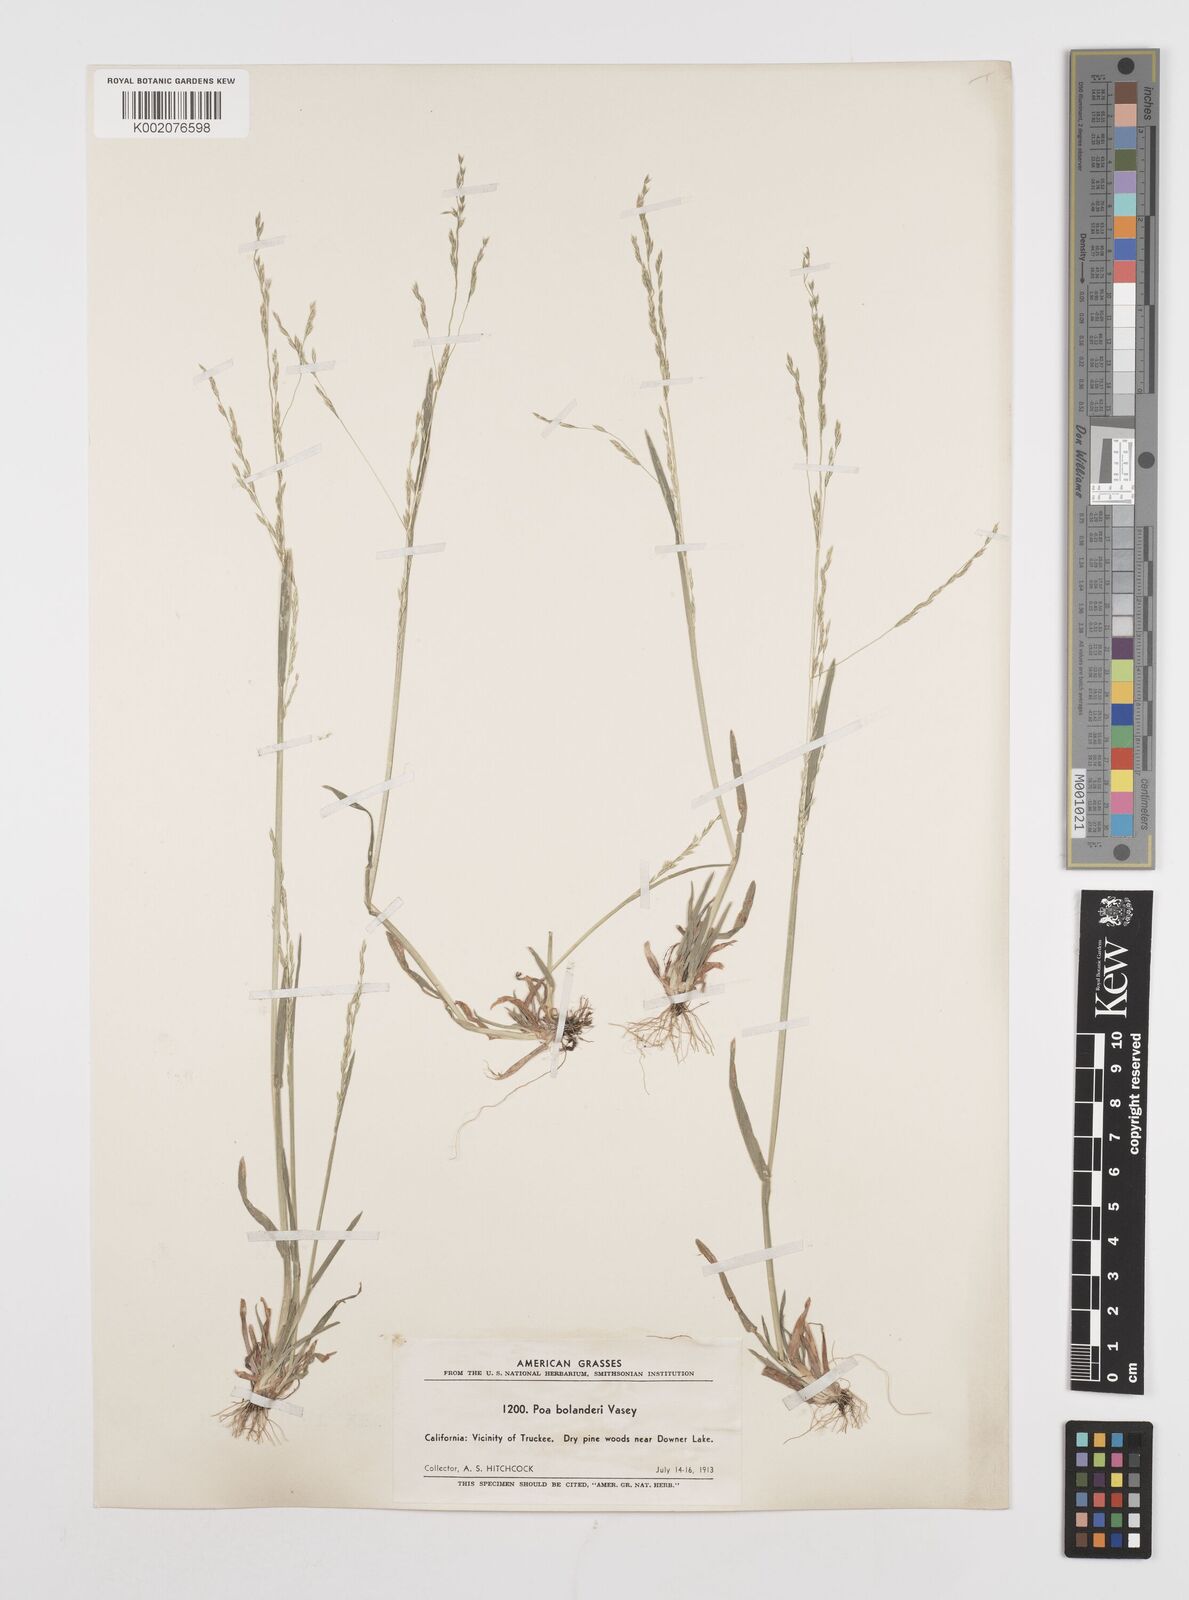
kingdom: Plantae
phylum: Tracheophyta
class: Liliopsida
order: Poales
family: Poaceae
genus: Poa
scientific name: Poa bolanderi
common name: Bolander's bluegrass
